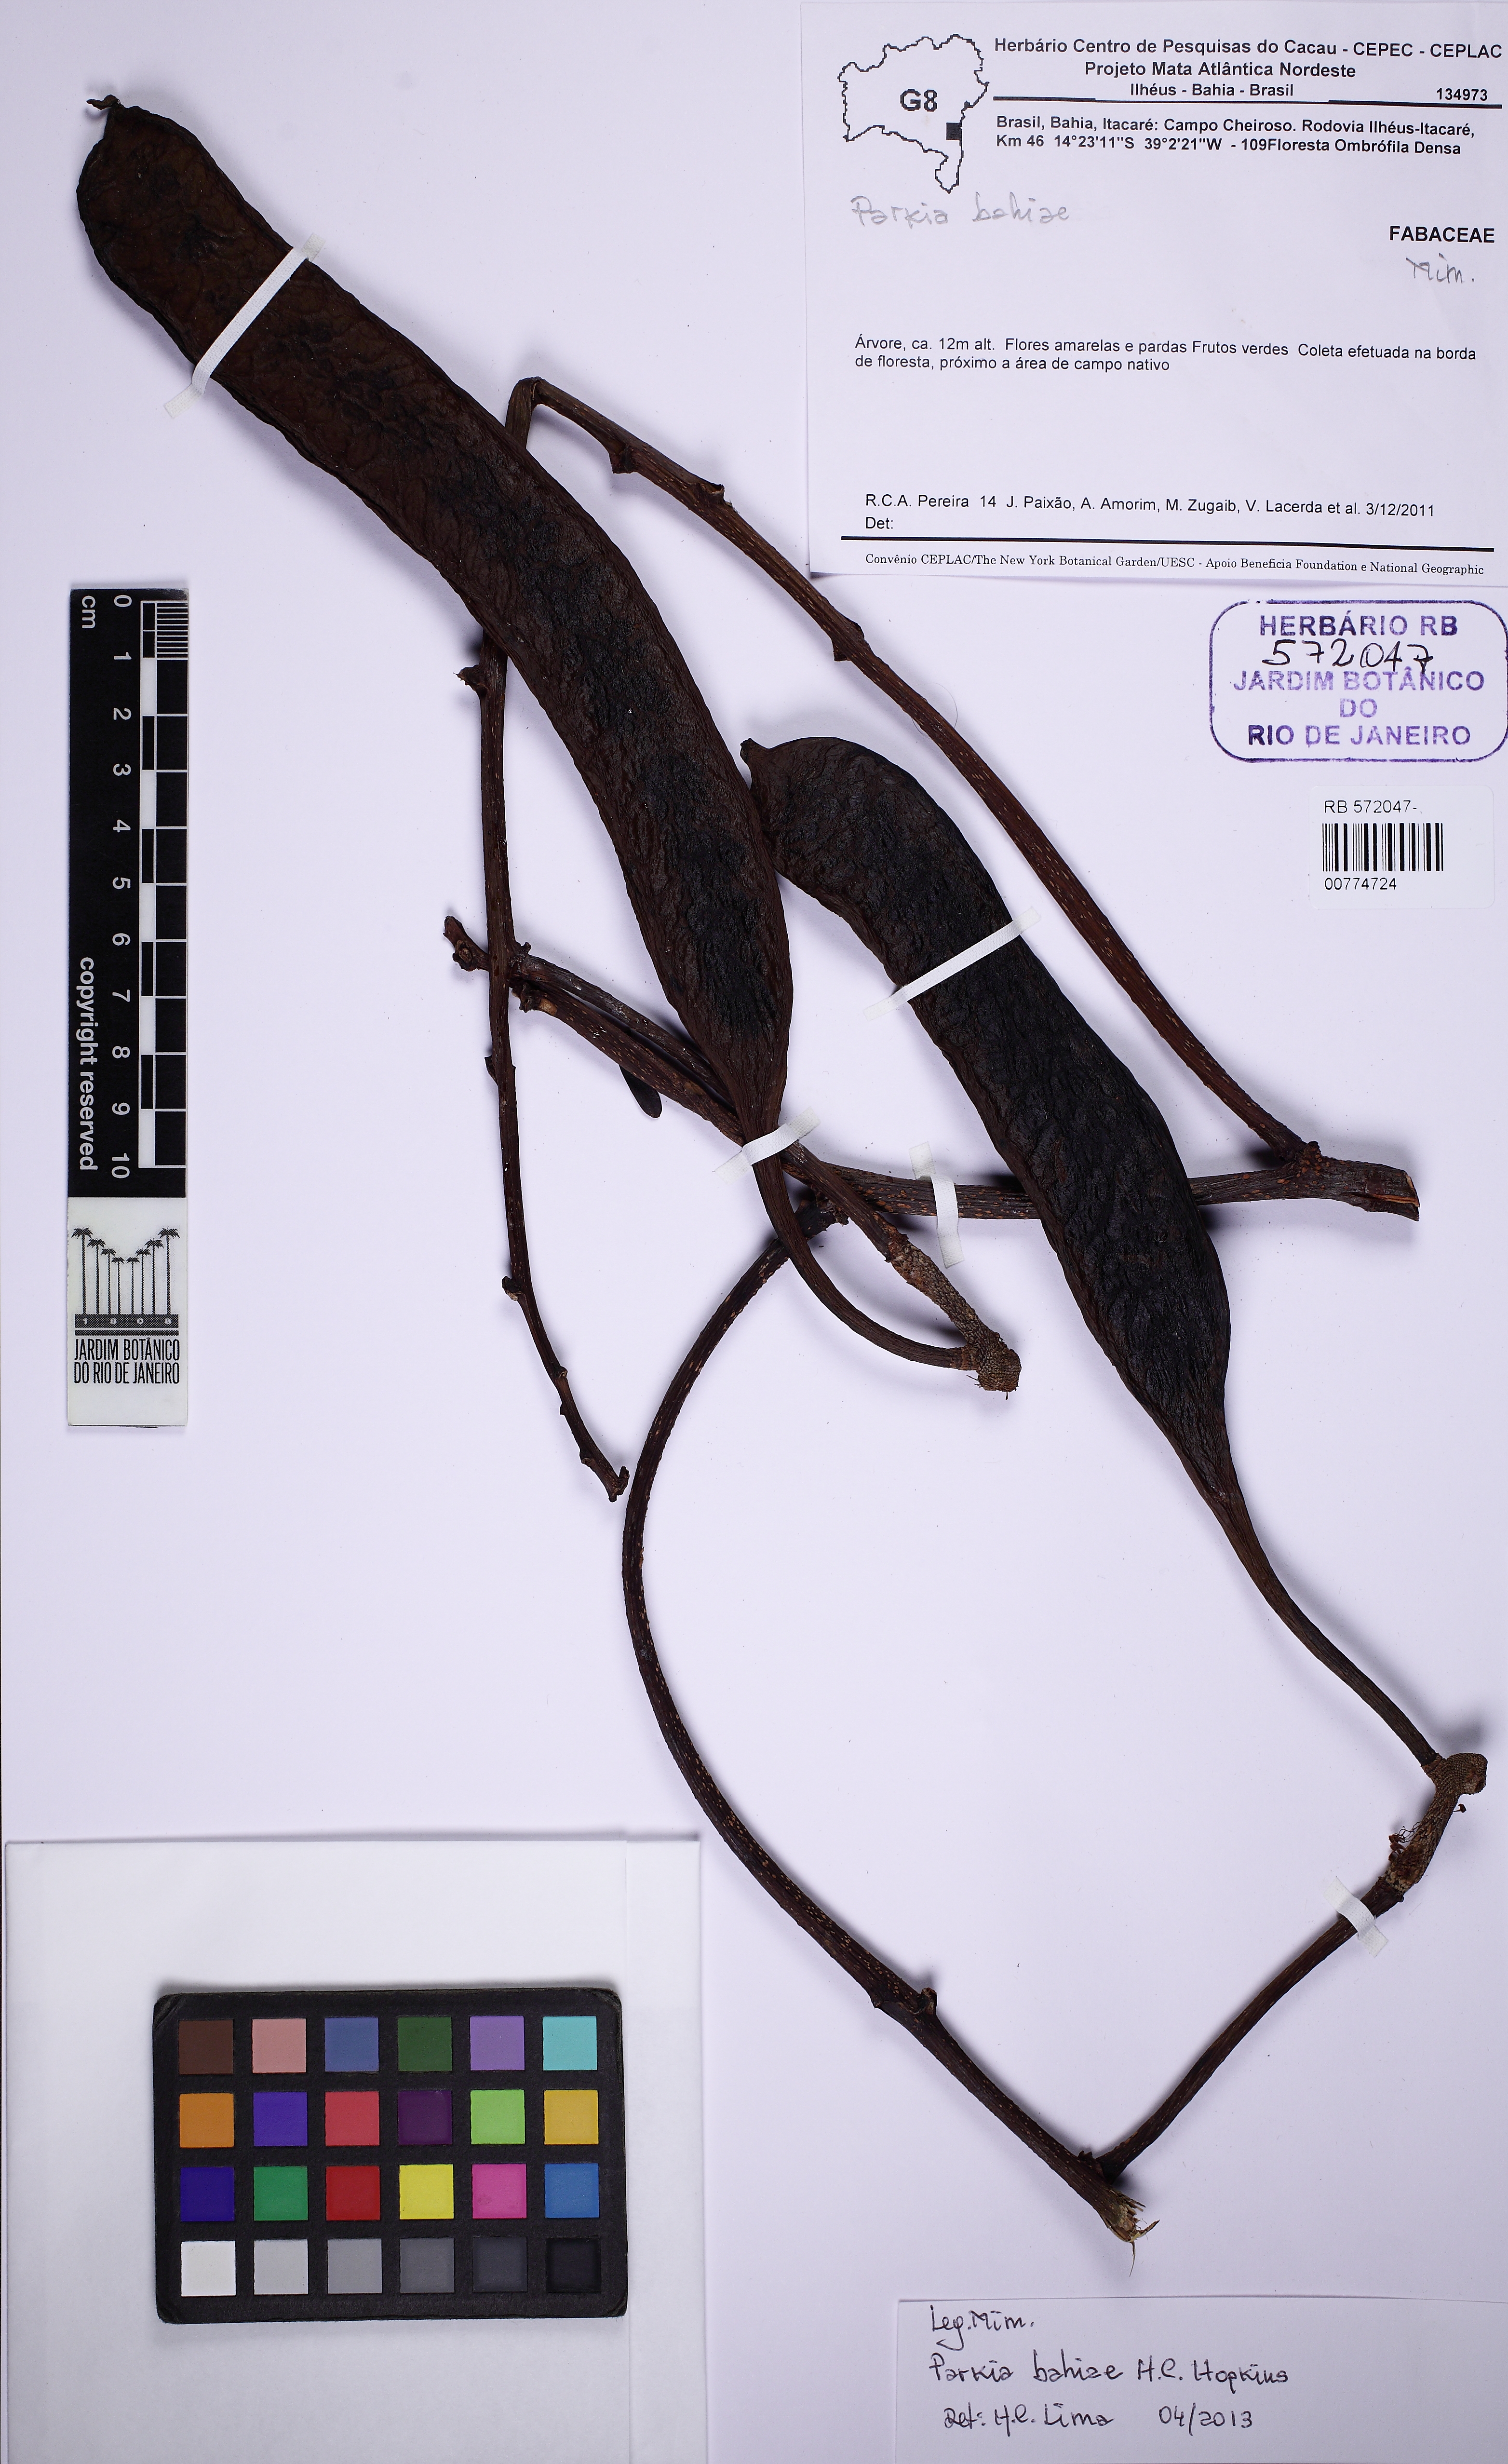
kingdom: Plantae
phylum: Tracheophyta
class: Magnoliopsida
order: Fabales
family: Fabaceae
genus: Parkia
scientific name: Parkia bahiae
